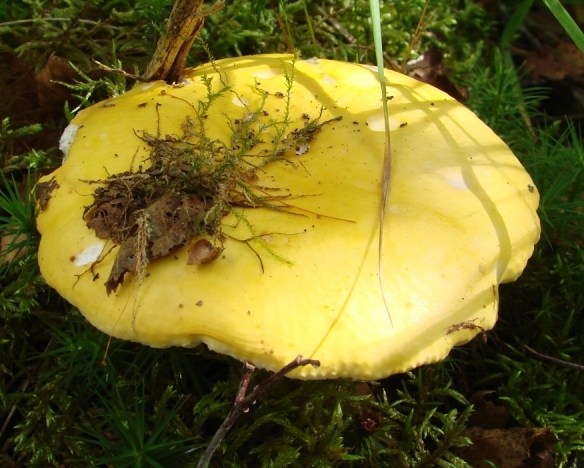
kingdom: Fungi
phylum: Basidiomycota
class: Agaricomycetes
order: Russulales
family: Russulaceae
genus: Russula
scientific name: Russula claroflava
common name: birke-skørhat
